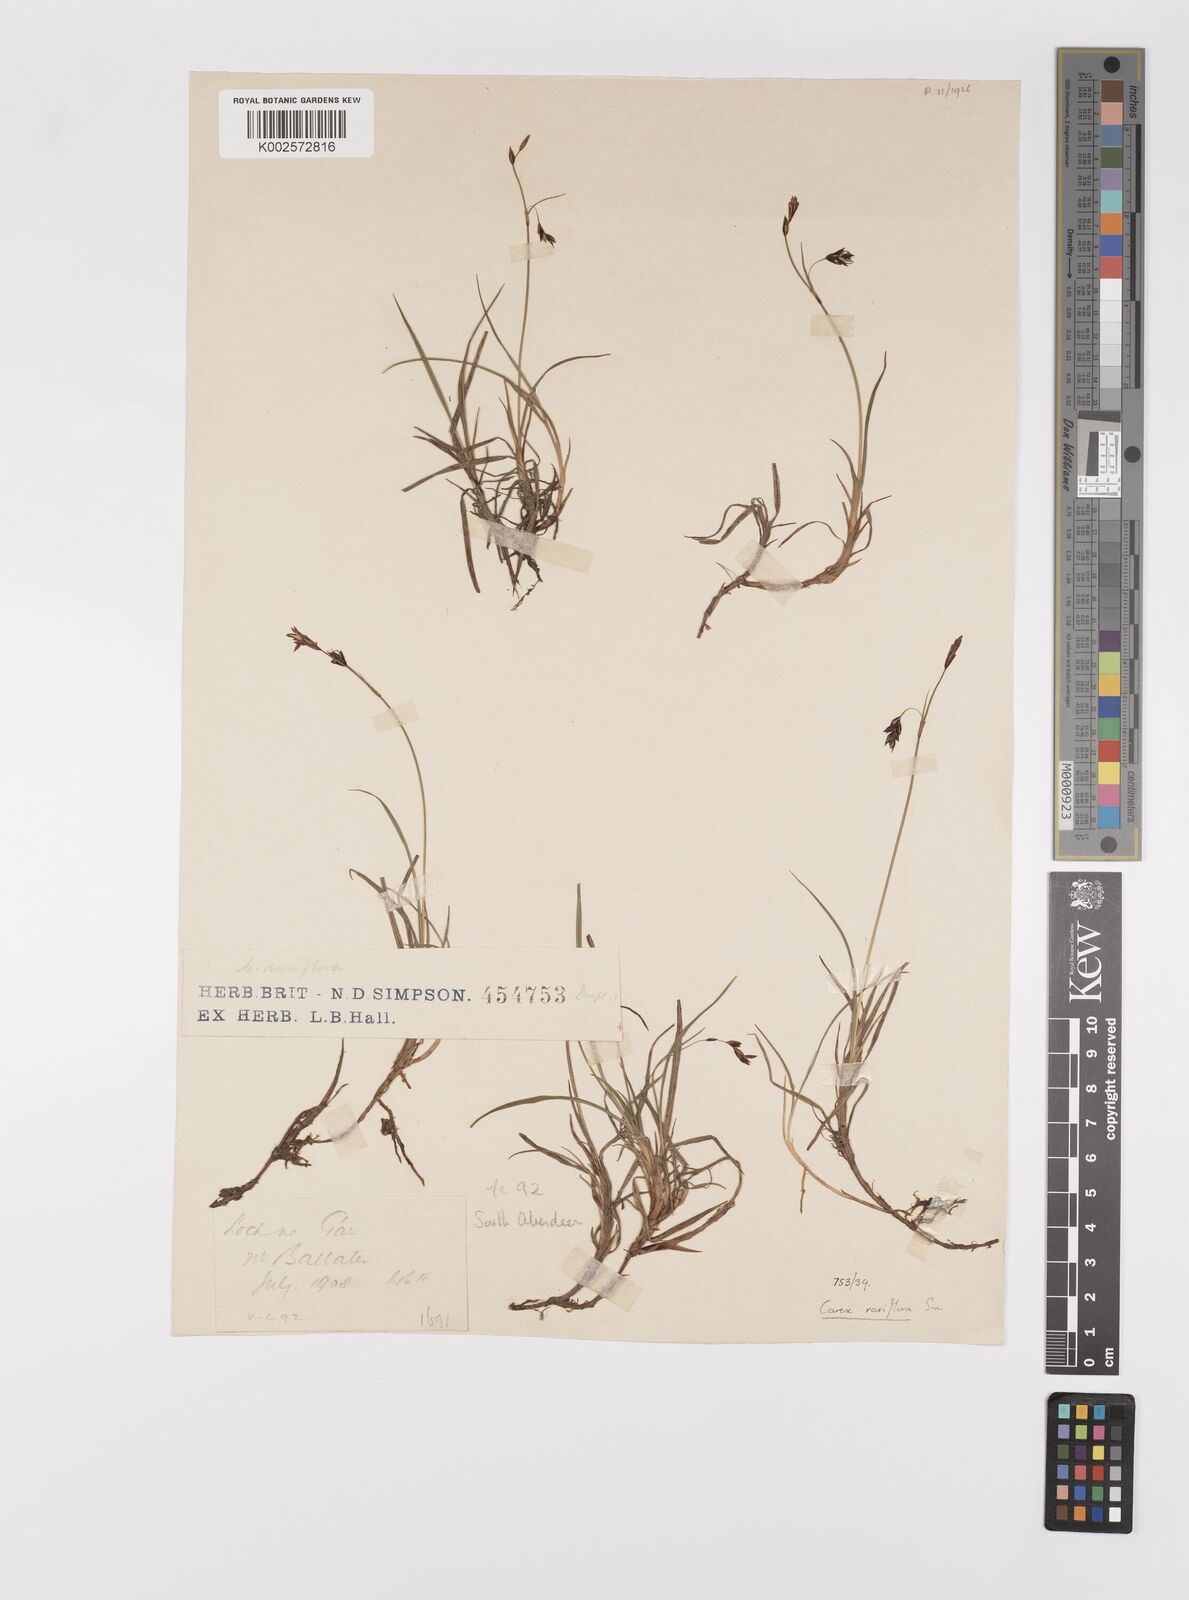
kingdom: Plantae
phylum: Tracheophyta
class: Liliopsida
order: Poales
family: Cyperaceae
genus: Carex
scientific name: Carex rariflora
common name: Loose-flowered alpine sedge
